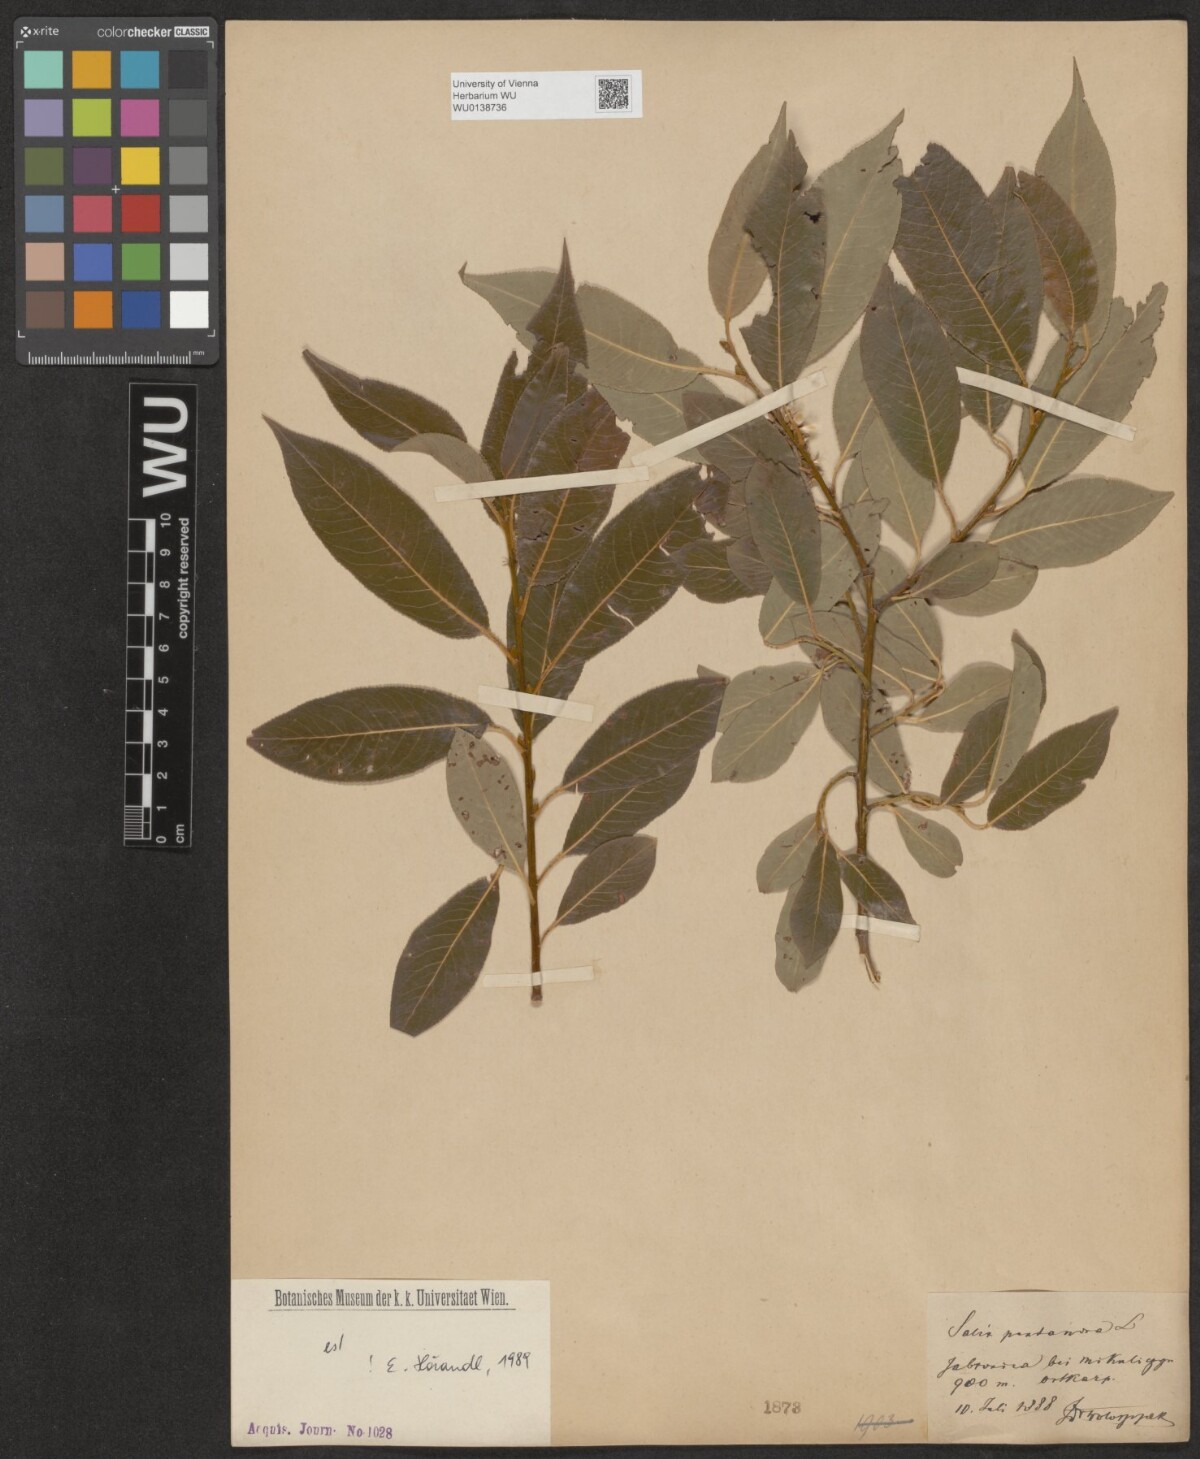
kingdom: Plantae
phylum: Tracheophyta
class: Magnoliopsida
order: Malpighiales
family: Salicaceae
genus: Salix
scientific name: Salix pentandra
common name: Bay willow
